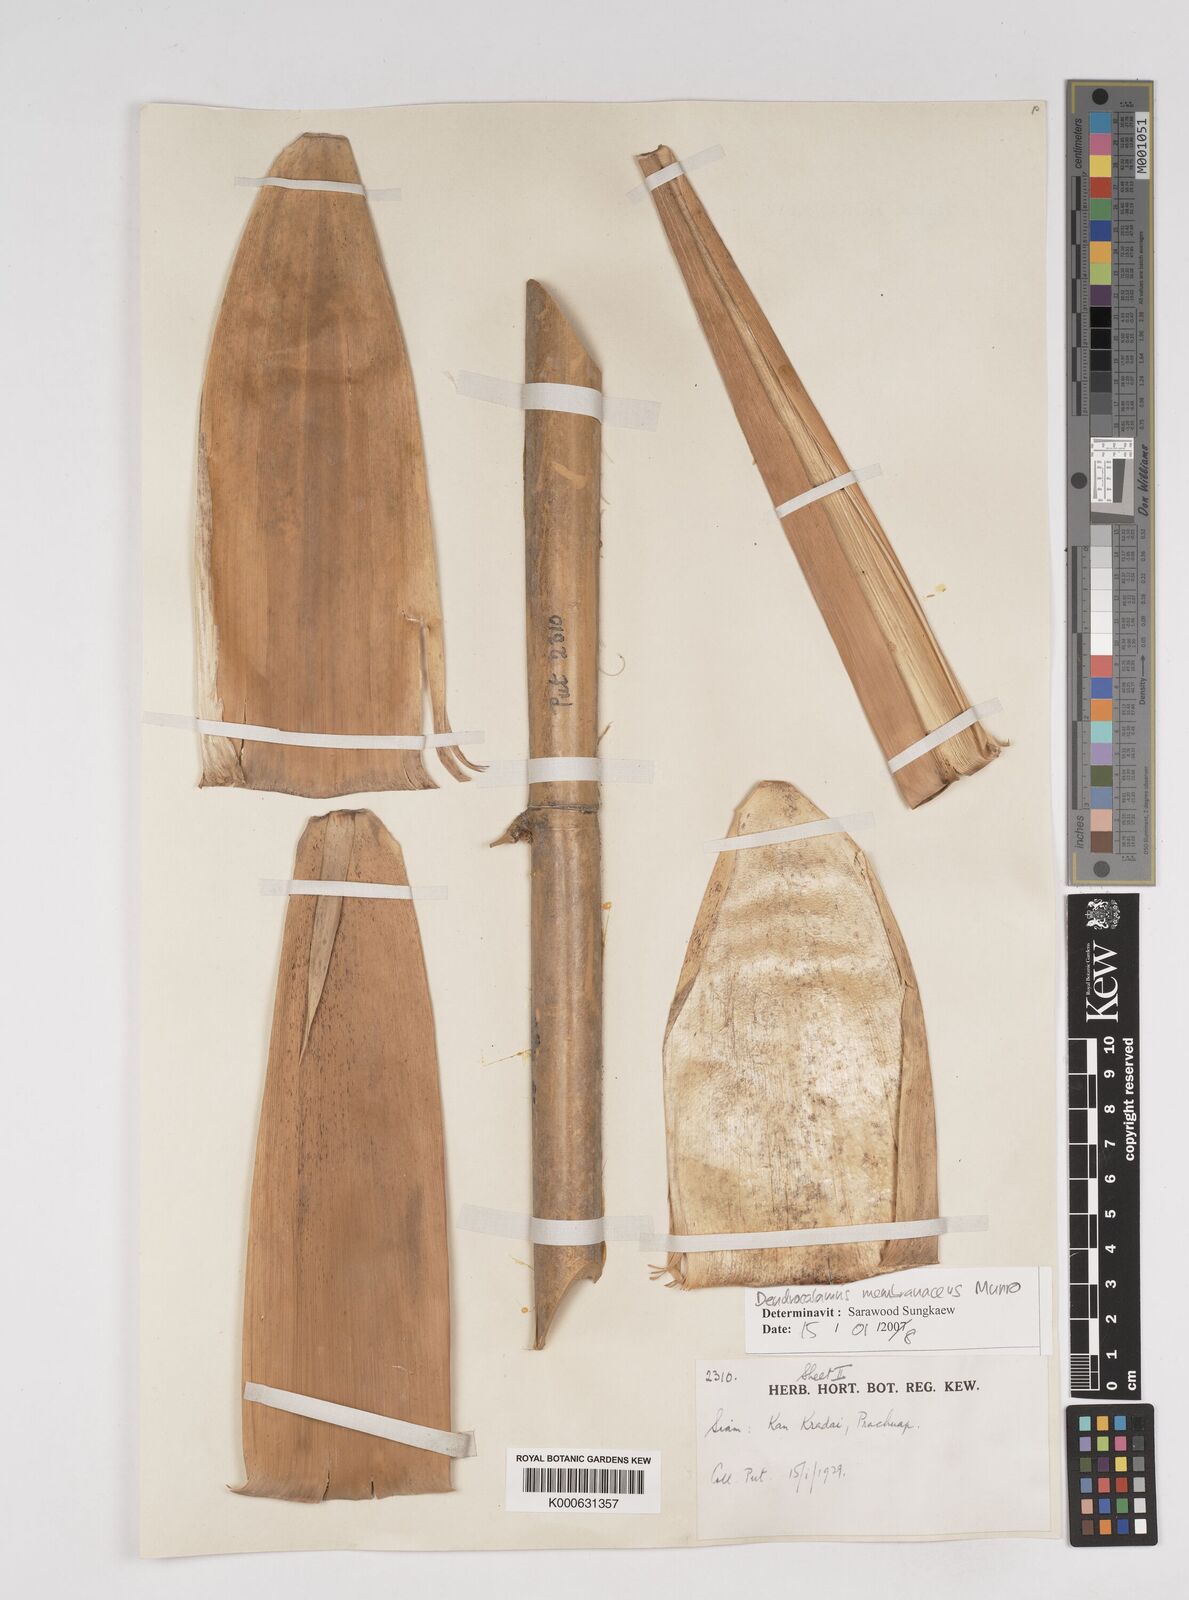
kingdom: Plantae
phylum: Tracheophyta
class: Liliopsida
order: Poales
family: Poaceae
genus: Dendrocalamus
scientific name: Dendrocalamus membranaceus
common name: White bamboo
